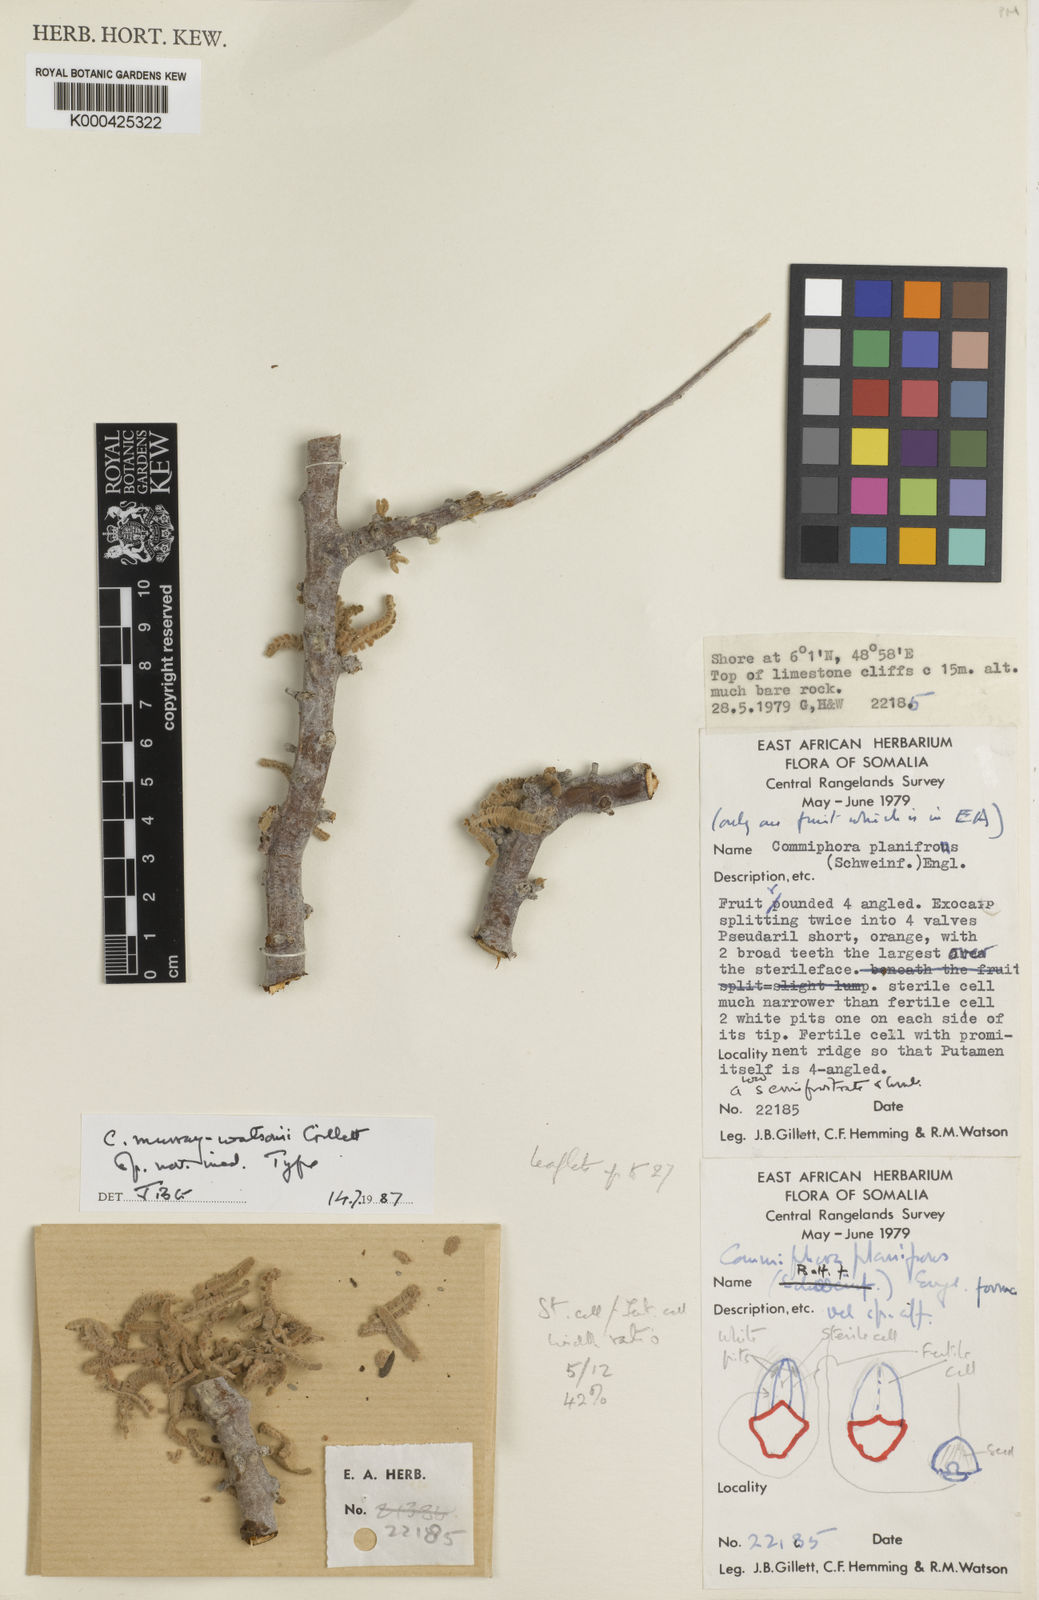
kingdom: Plantae
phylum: Tracheophyta
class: Magnoliopsida
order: Sapindales
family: Burseraceae
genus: Commiphora
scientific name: Commiphora murraywatsonii
